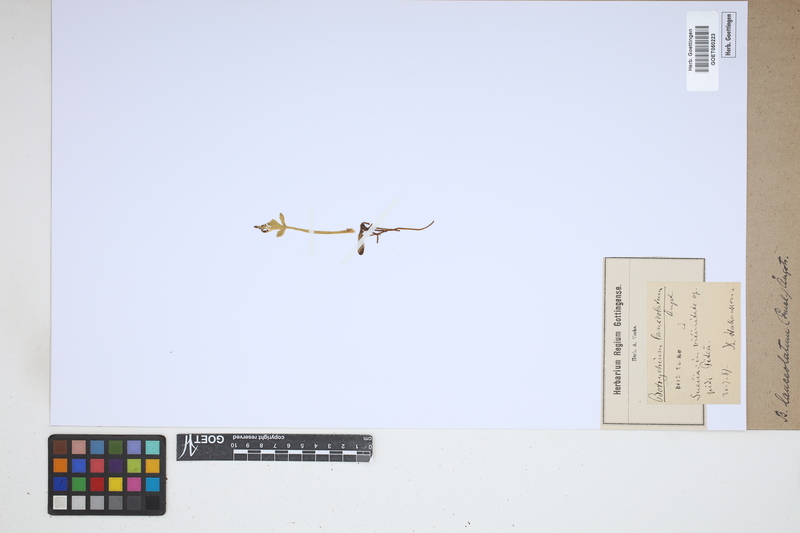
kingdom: Plantae
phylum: Tracheophyta
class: Polypodiopsida
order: Ophioglossales
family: Ophioglossaceae
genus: Botrychium
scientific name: Botrychium lanceolatum
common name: Lance-leaved moonwort
